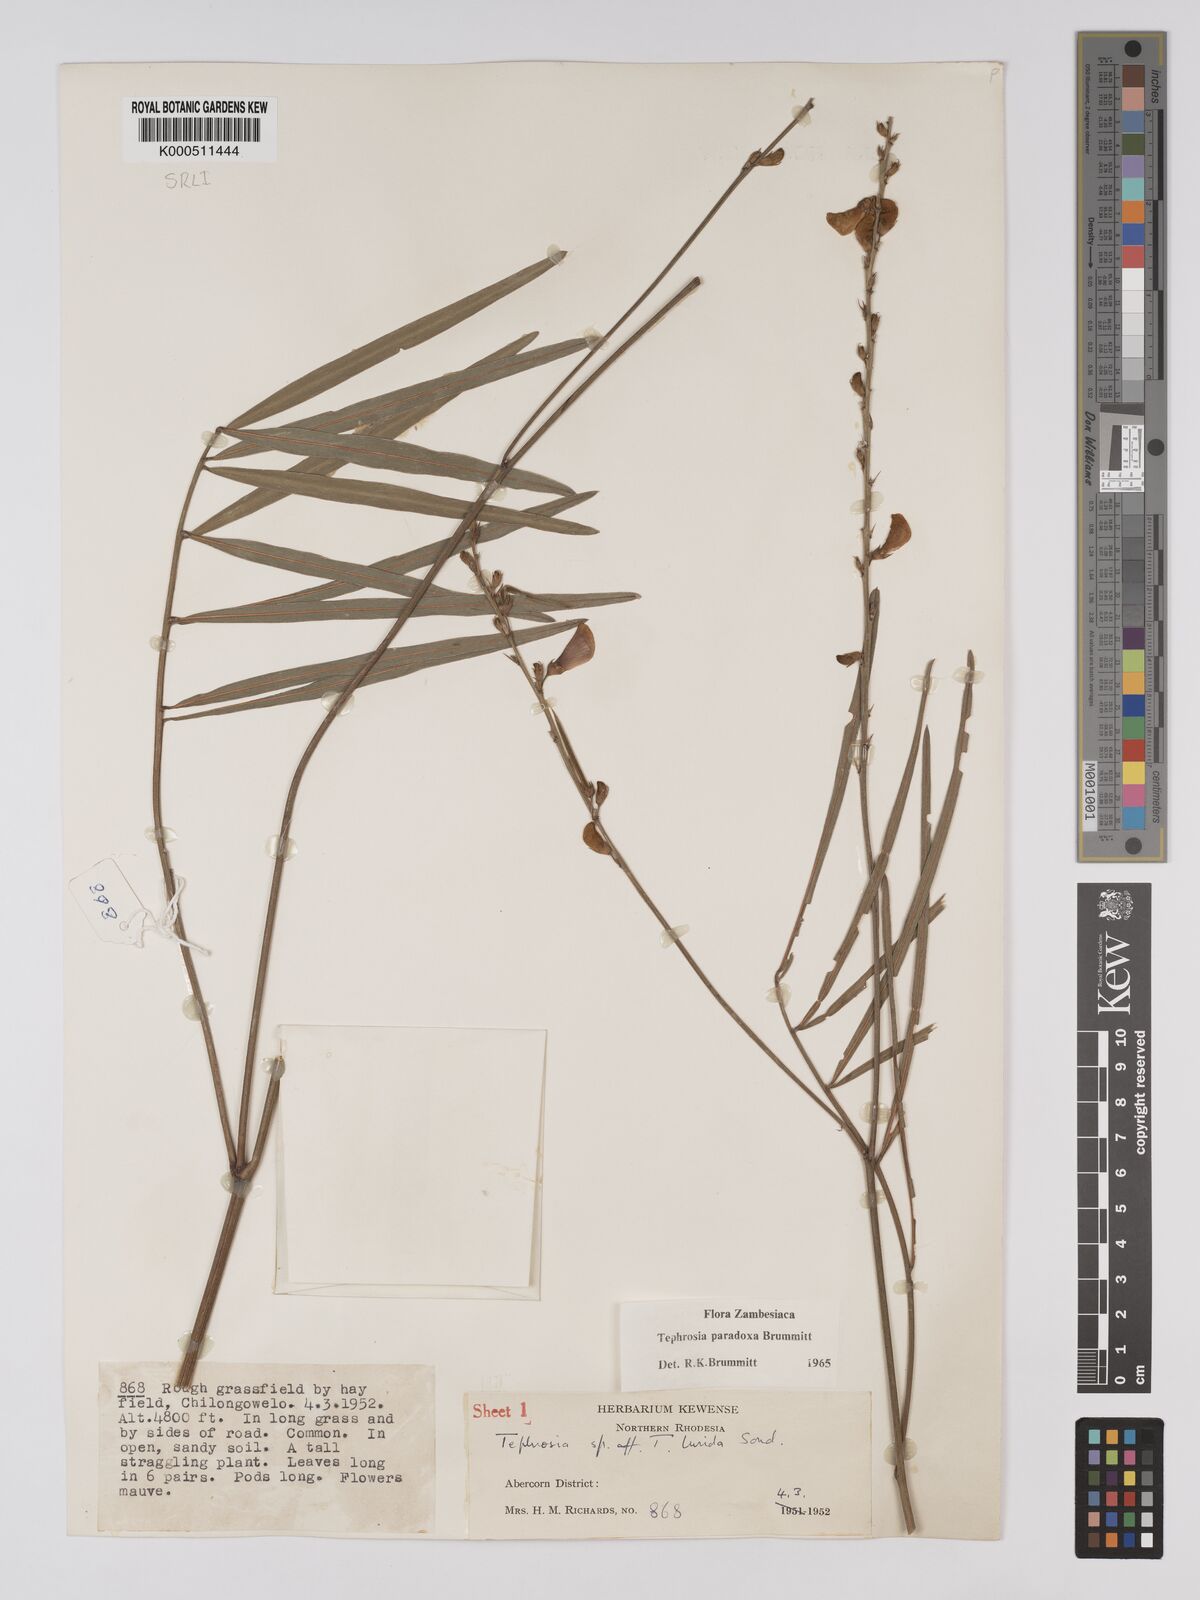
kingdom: Plantae
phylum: Tracheophyta
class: Magnoliopsida
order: Fabales
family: Fabaceae
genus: Tephrosia
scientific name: Tephrosia paradoxa
